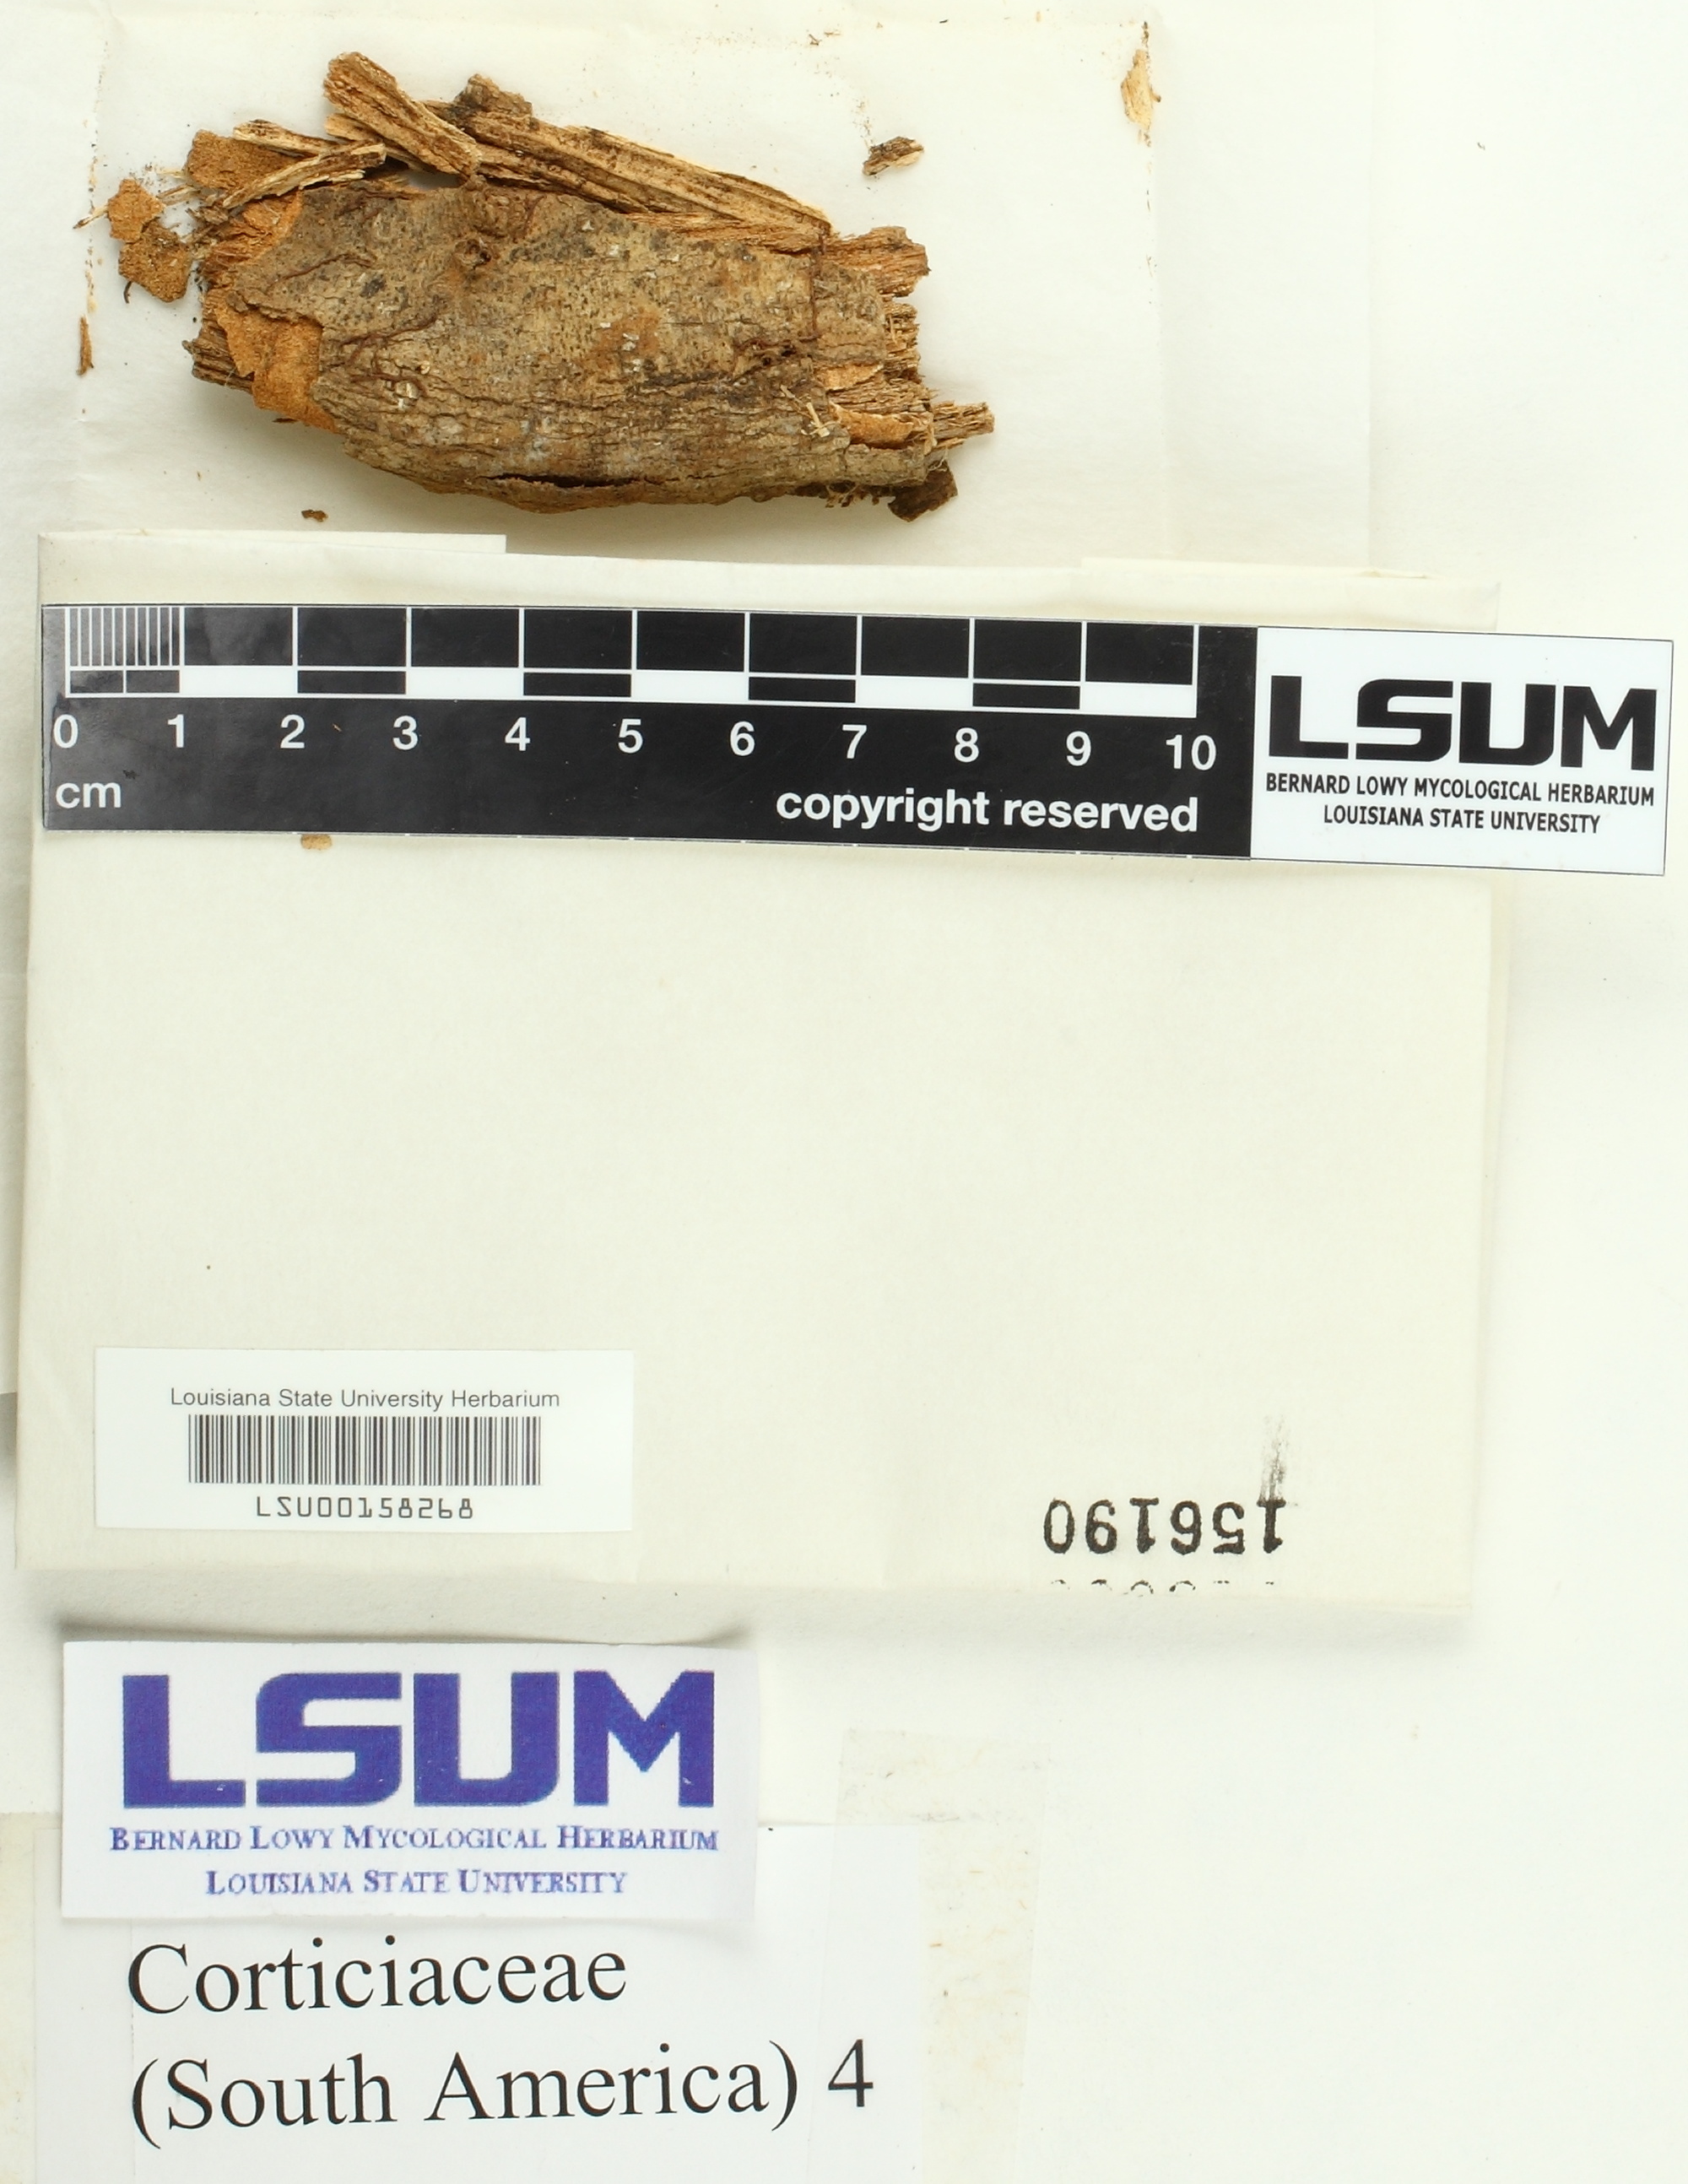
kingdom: Fungi
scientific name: Fungi
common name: Fungi
